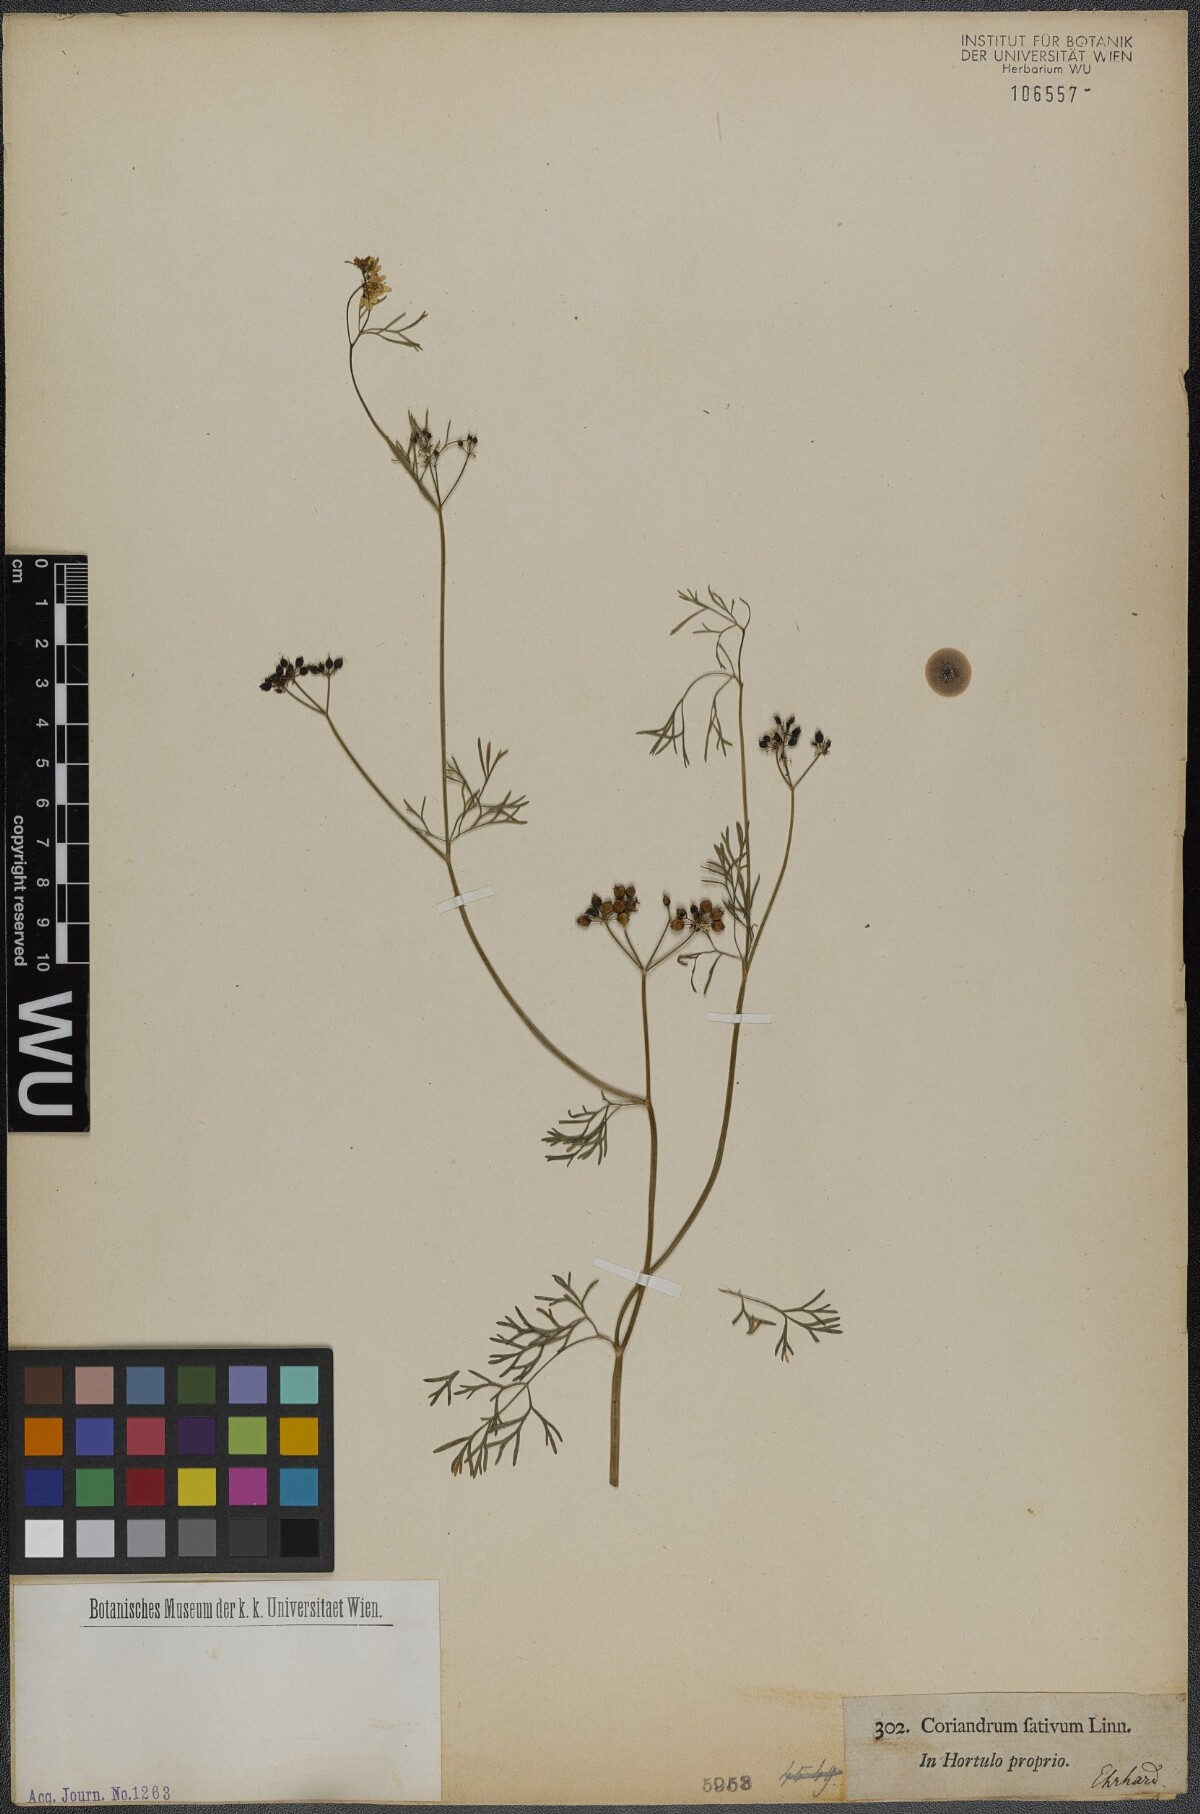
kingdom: Plantae
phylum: Tracheophyta
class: Magnoliopsida
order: Apiales
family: Apiaceae
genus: Coriandrum
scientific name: Coriandrum sativum
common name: Coriander
